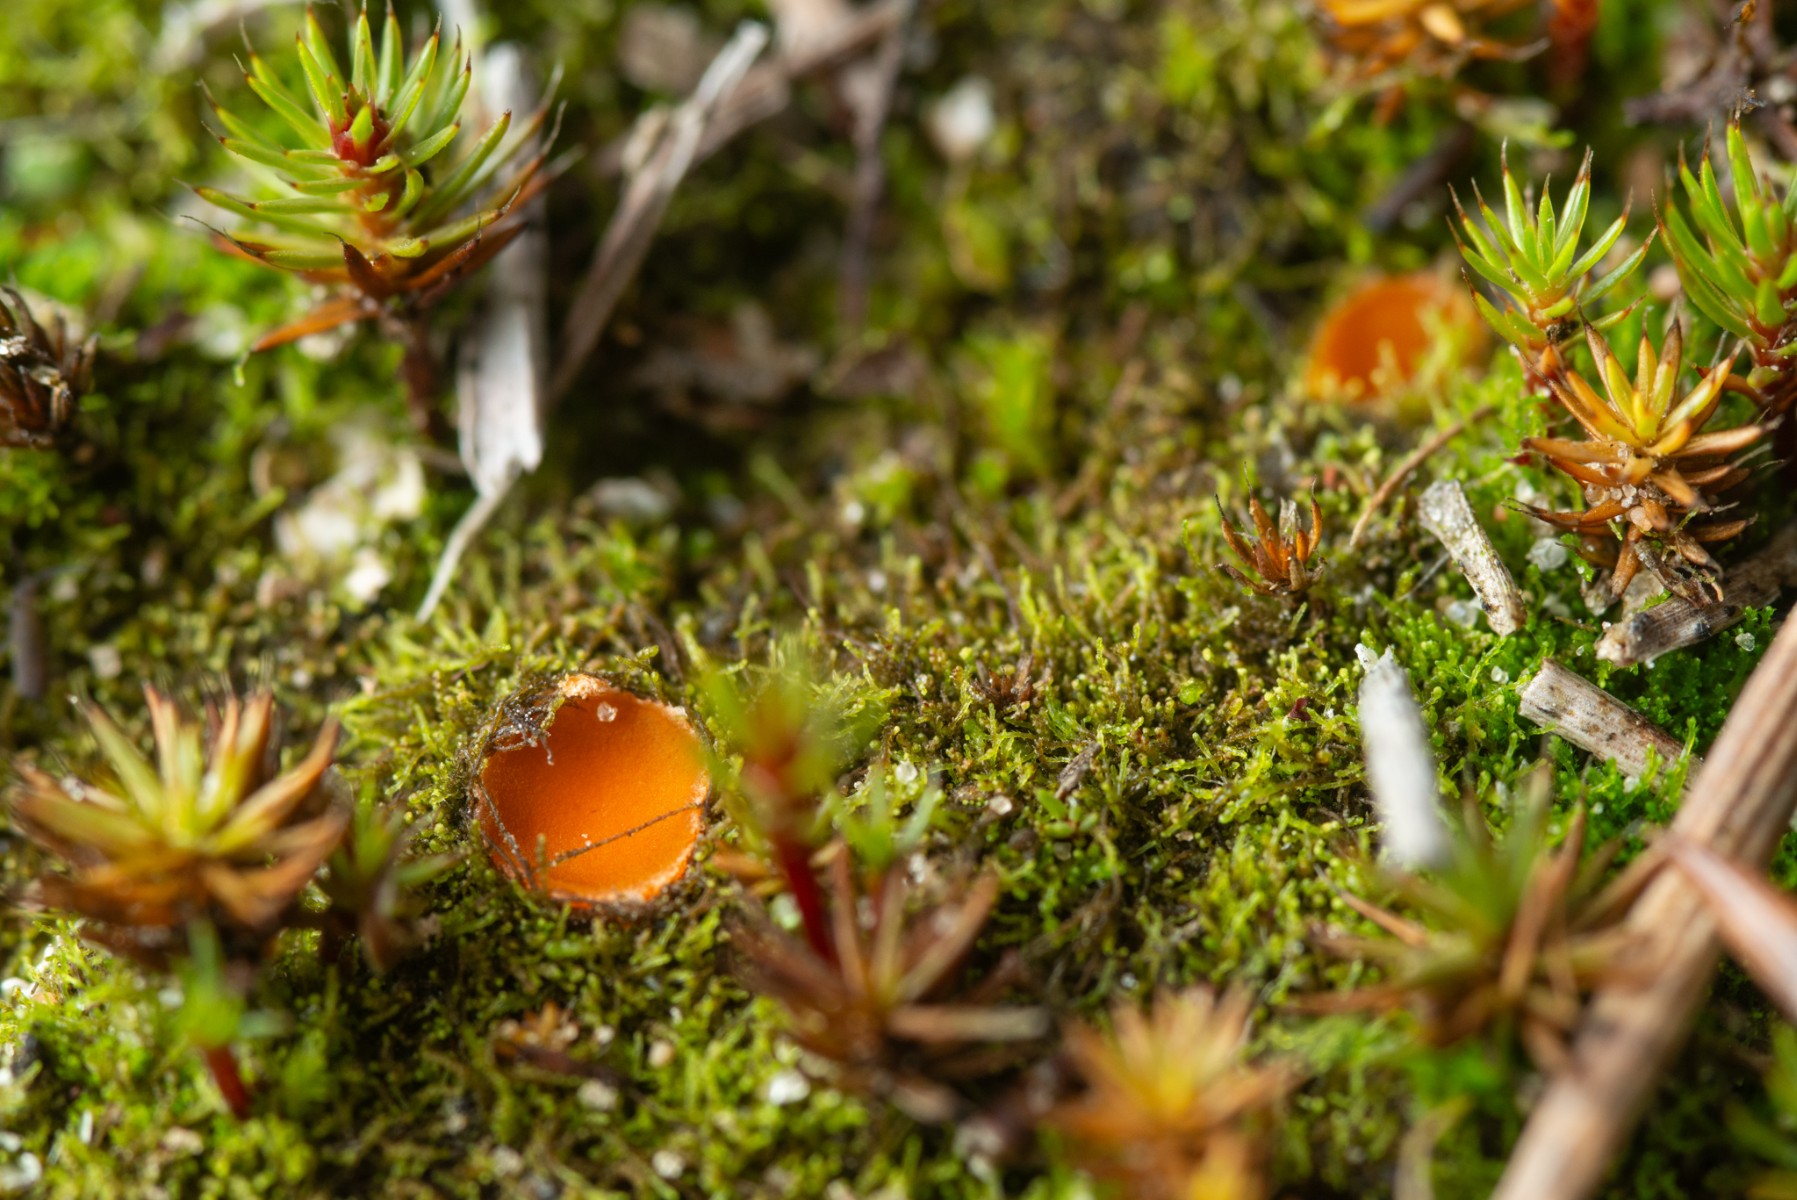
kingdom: Fungi
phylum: Ascomycota
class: Pezizomycetes
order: Pezizales
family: Pyronemataceae
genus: Neottiella
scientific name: Neottiella
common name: mosbæger
